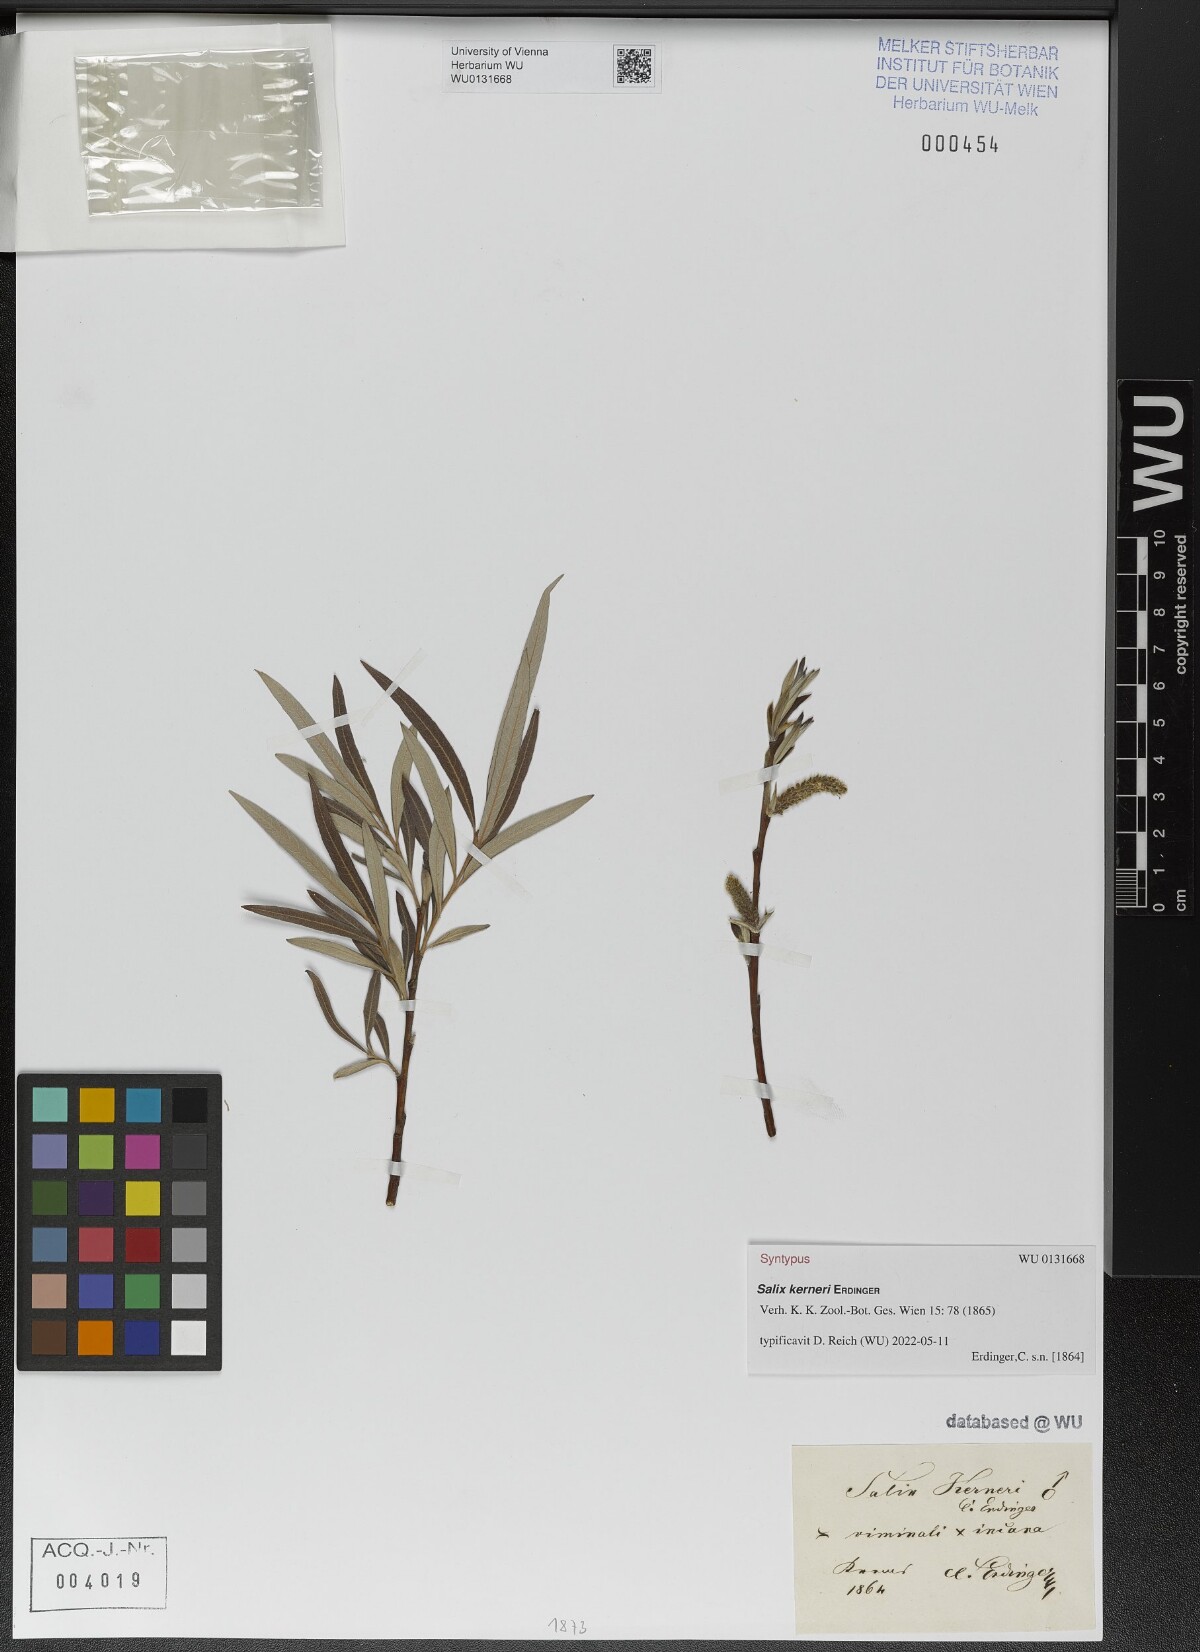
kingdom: Plantae
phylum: Tracheophyta
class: Magnoliopsida
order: Malpighiales
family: Salicaceae
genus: Salix
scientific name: Salix kerneri
